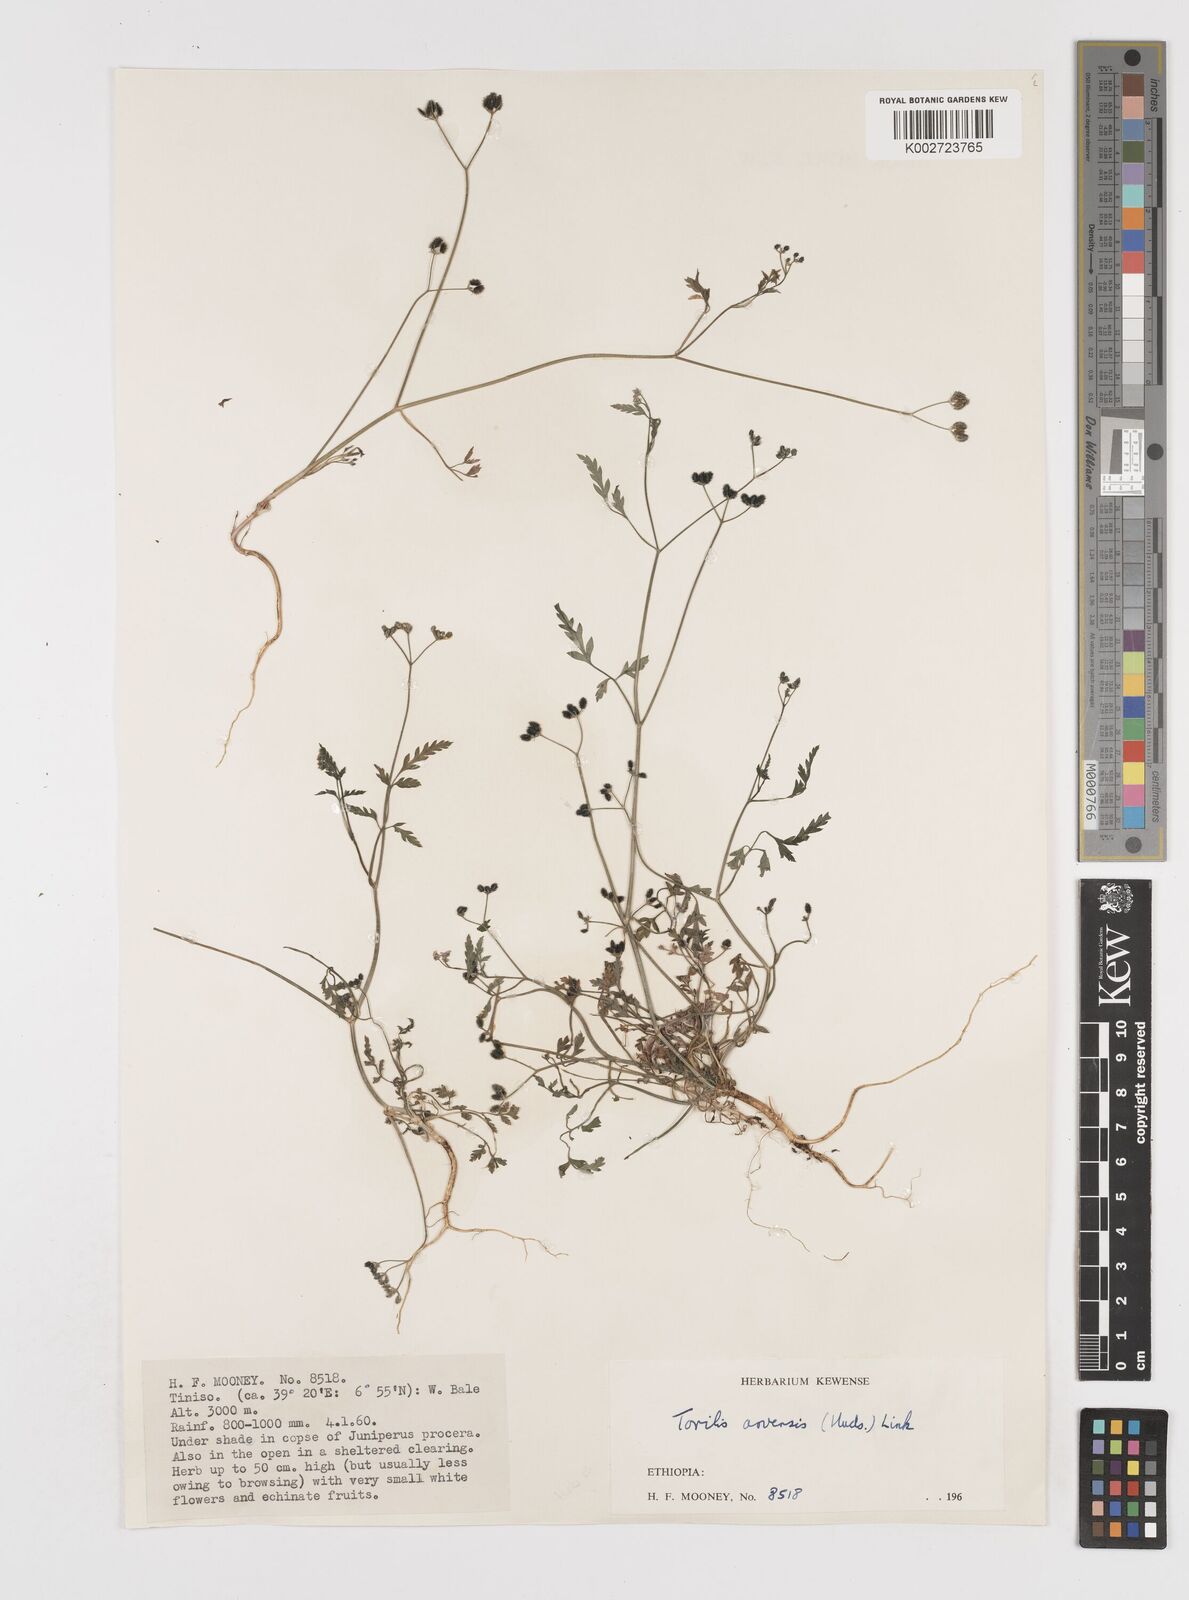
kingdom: Plantae
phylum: Tracheophyta
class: Magnoliopsida
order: Apiales
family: Apiaceae
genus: Torilis
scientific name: Torilis arvensis
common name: Spreading hedge-parsley
